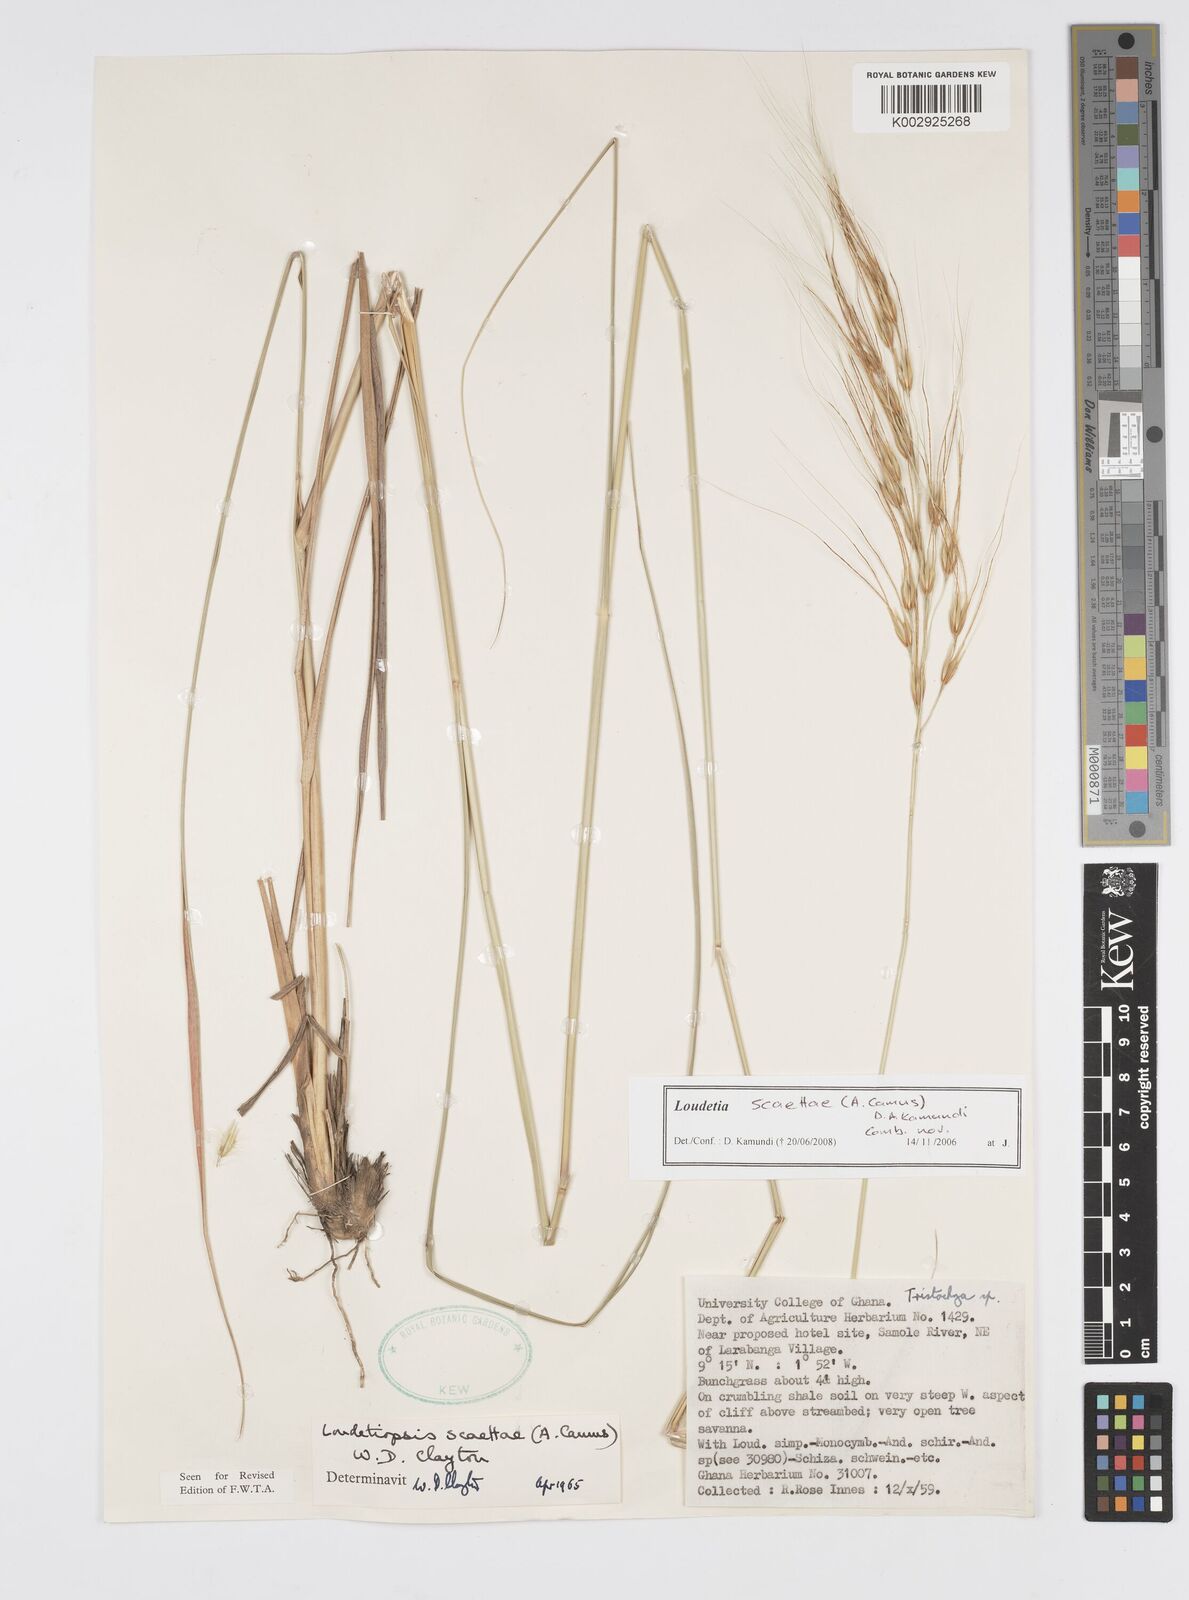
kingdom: Plantae
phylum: Tracheophyta
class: Liliopsida
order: Poales
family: Poaceae
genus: Loudetiopsis
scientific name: Loudetiopsis scaettae
